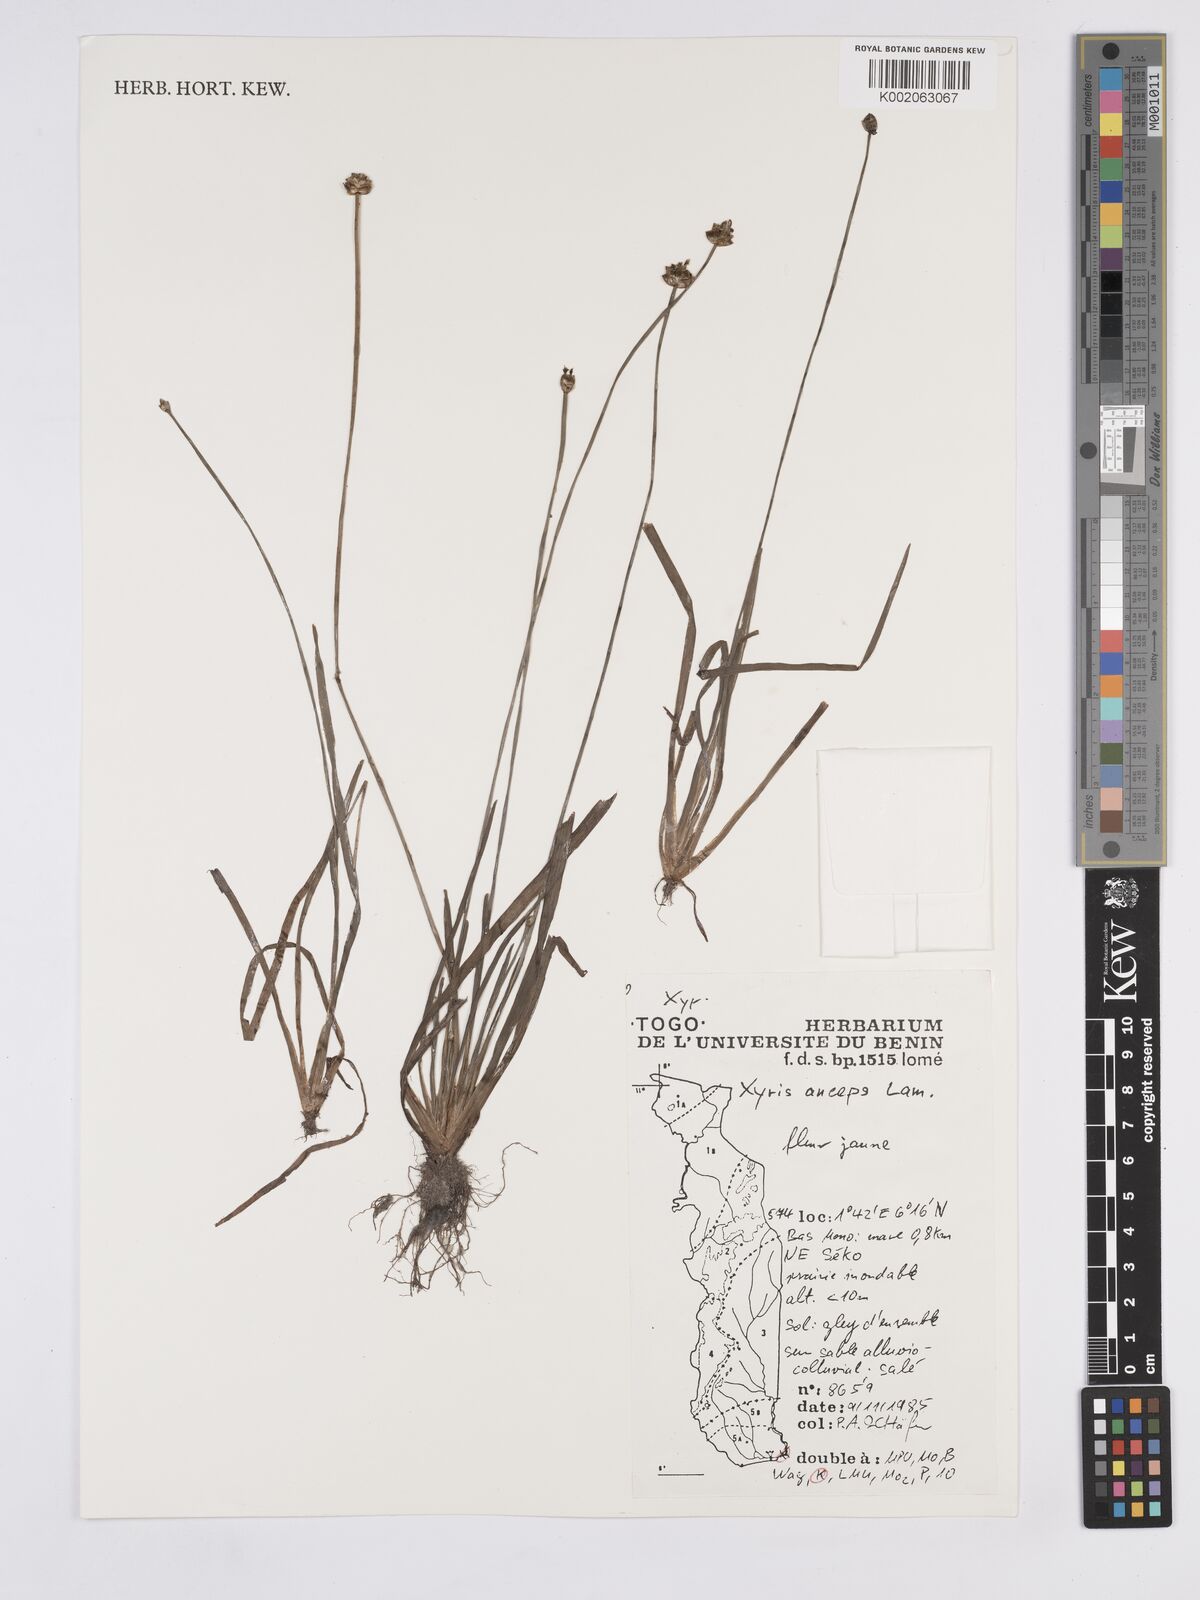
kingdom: Plantae
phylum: Tracheophyta
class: Liliopsida
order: Poales
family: Xyridaceae
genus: Xyris
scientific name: Xyris anceps
